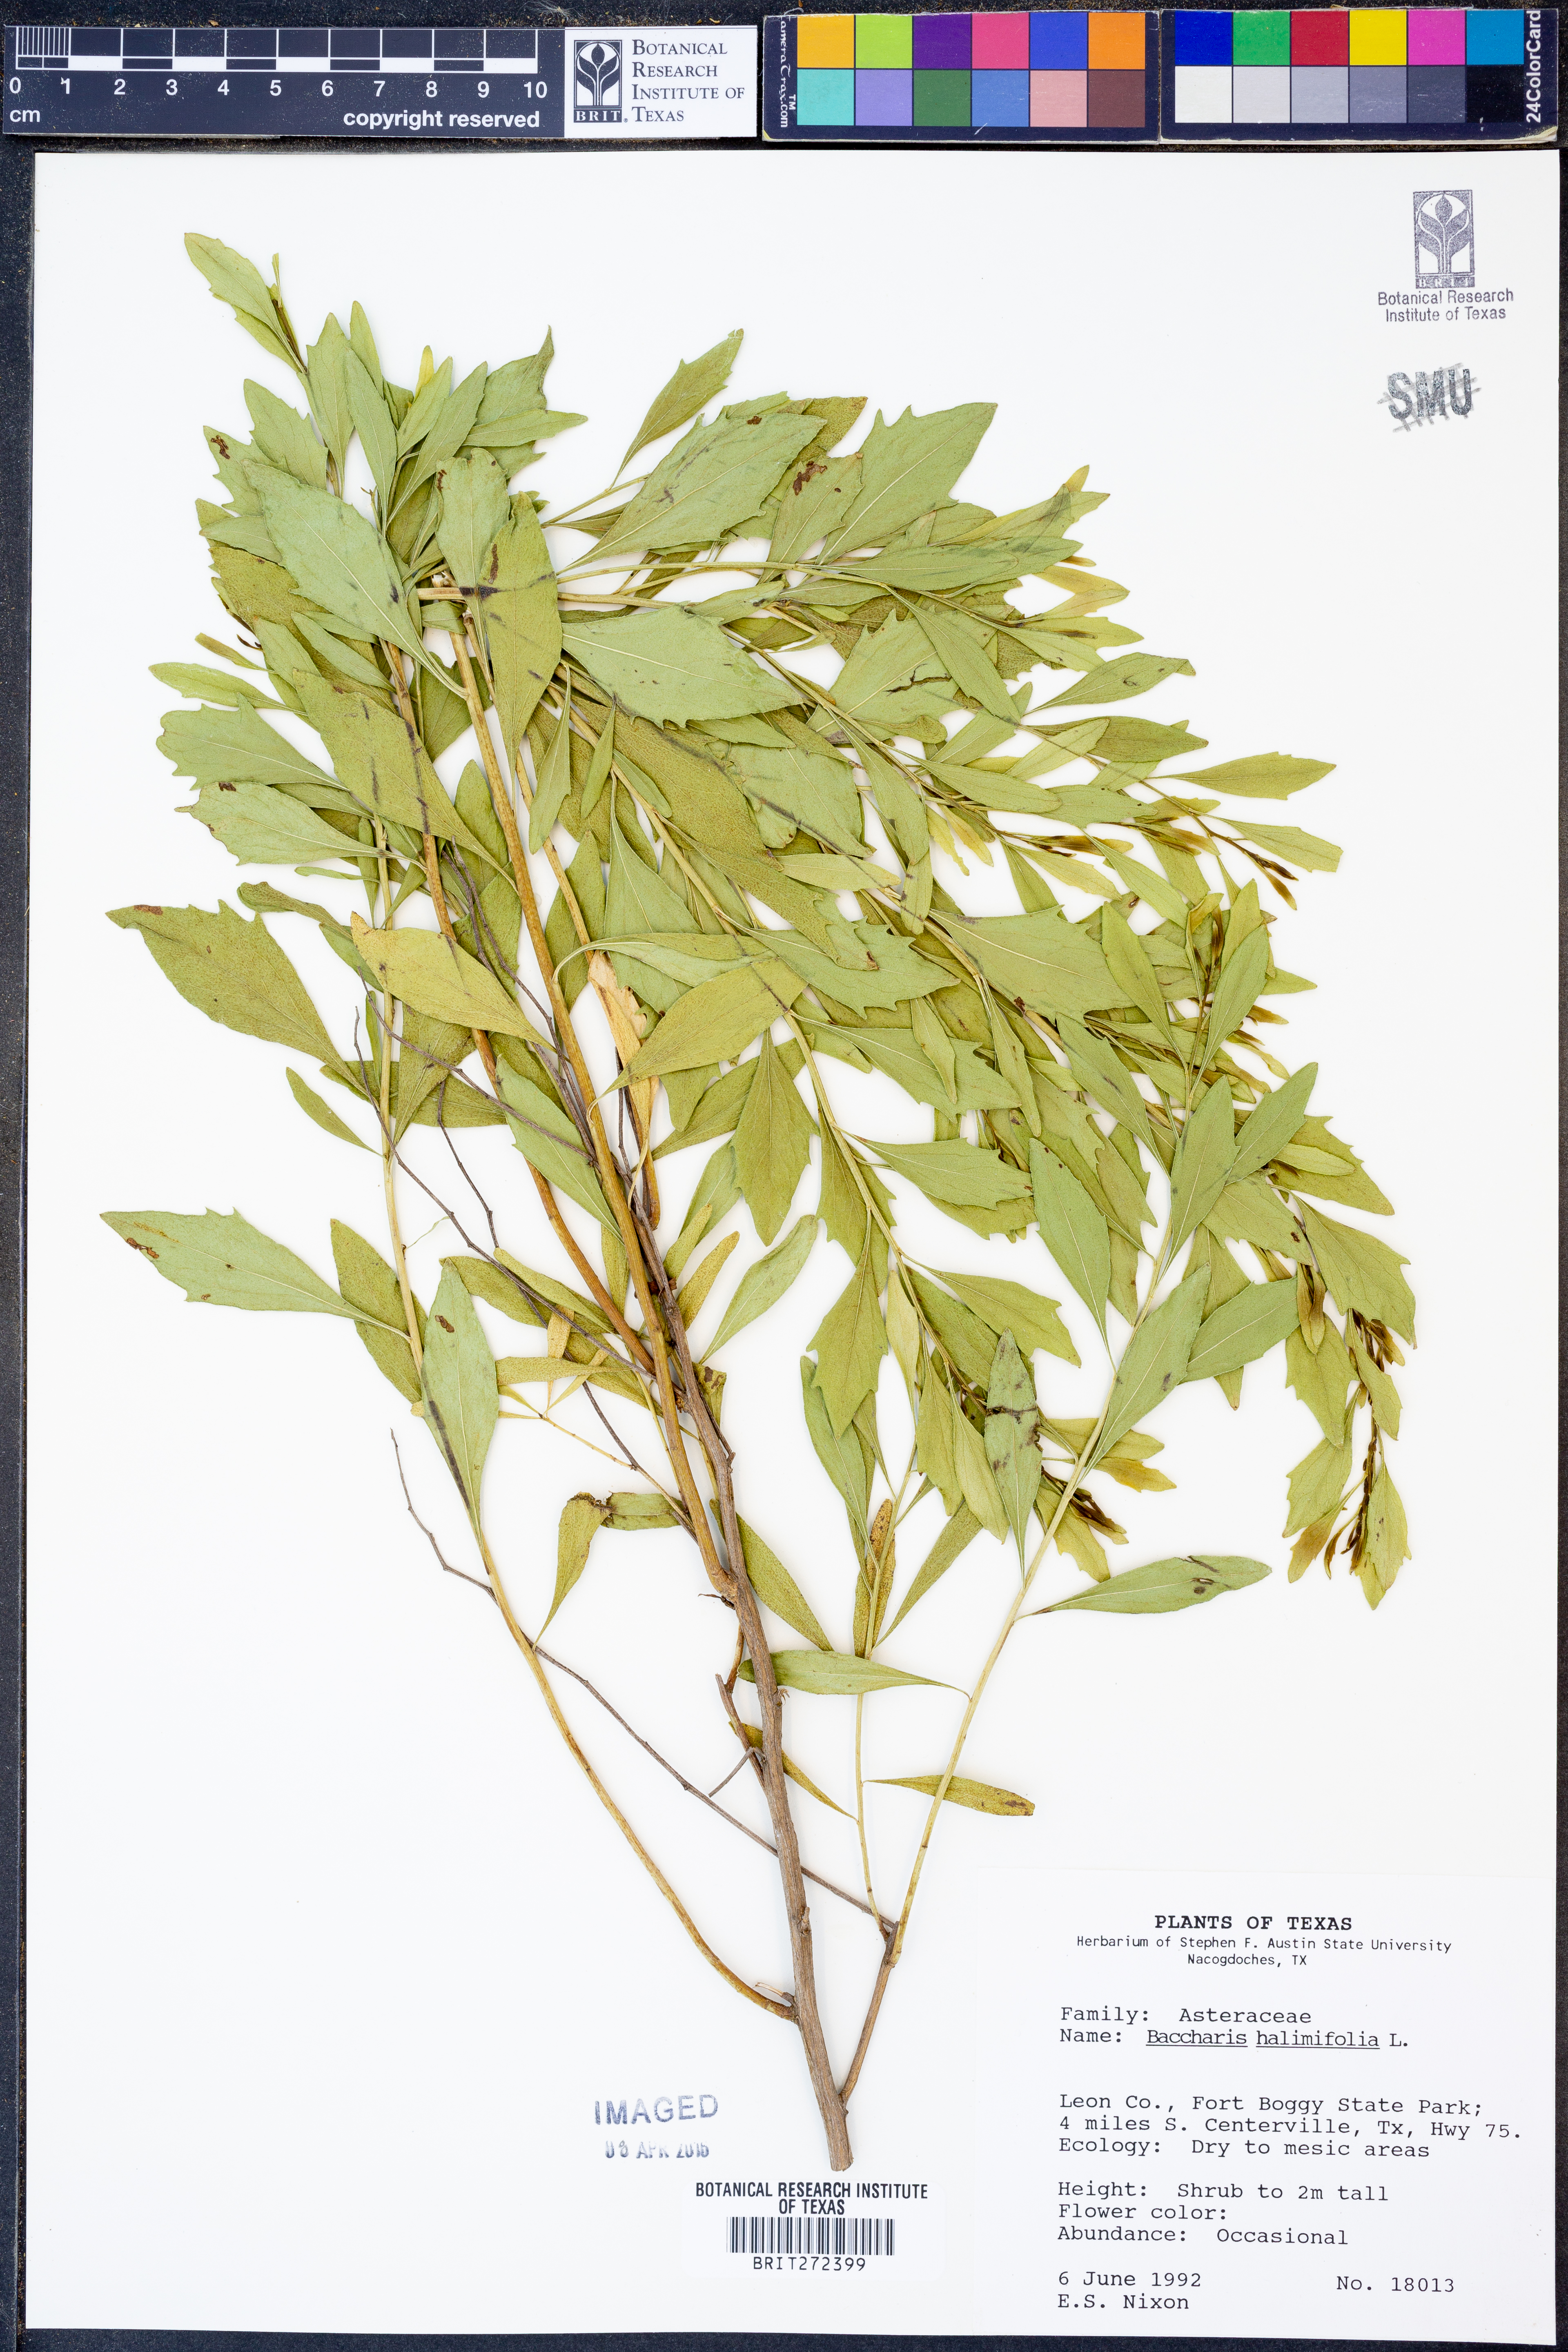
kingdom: Plantae
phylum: Tracheophyta
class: Magnoliopsida
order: Asterales
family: Asteraceae
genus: Nidorella
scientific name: Nidorella ivifolia
